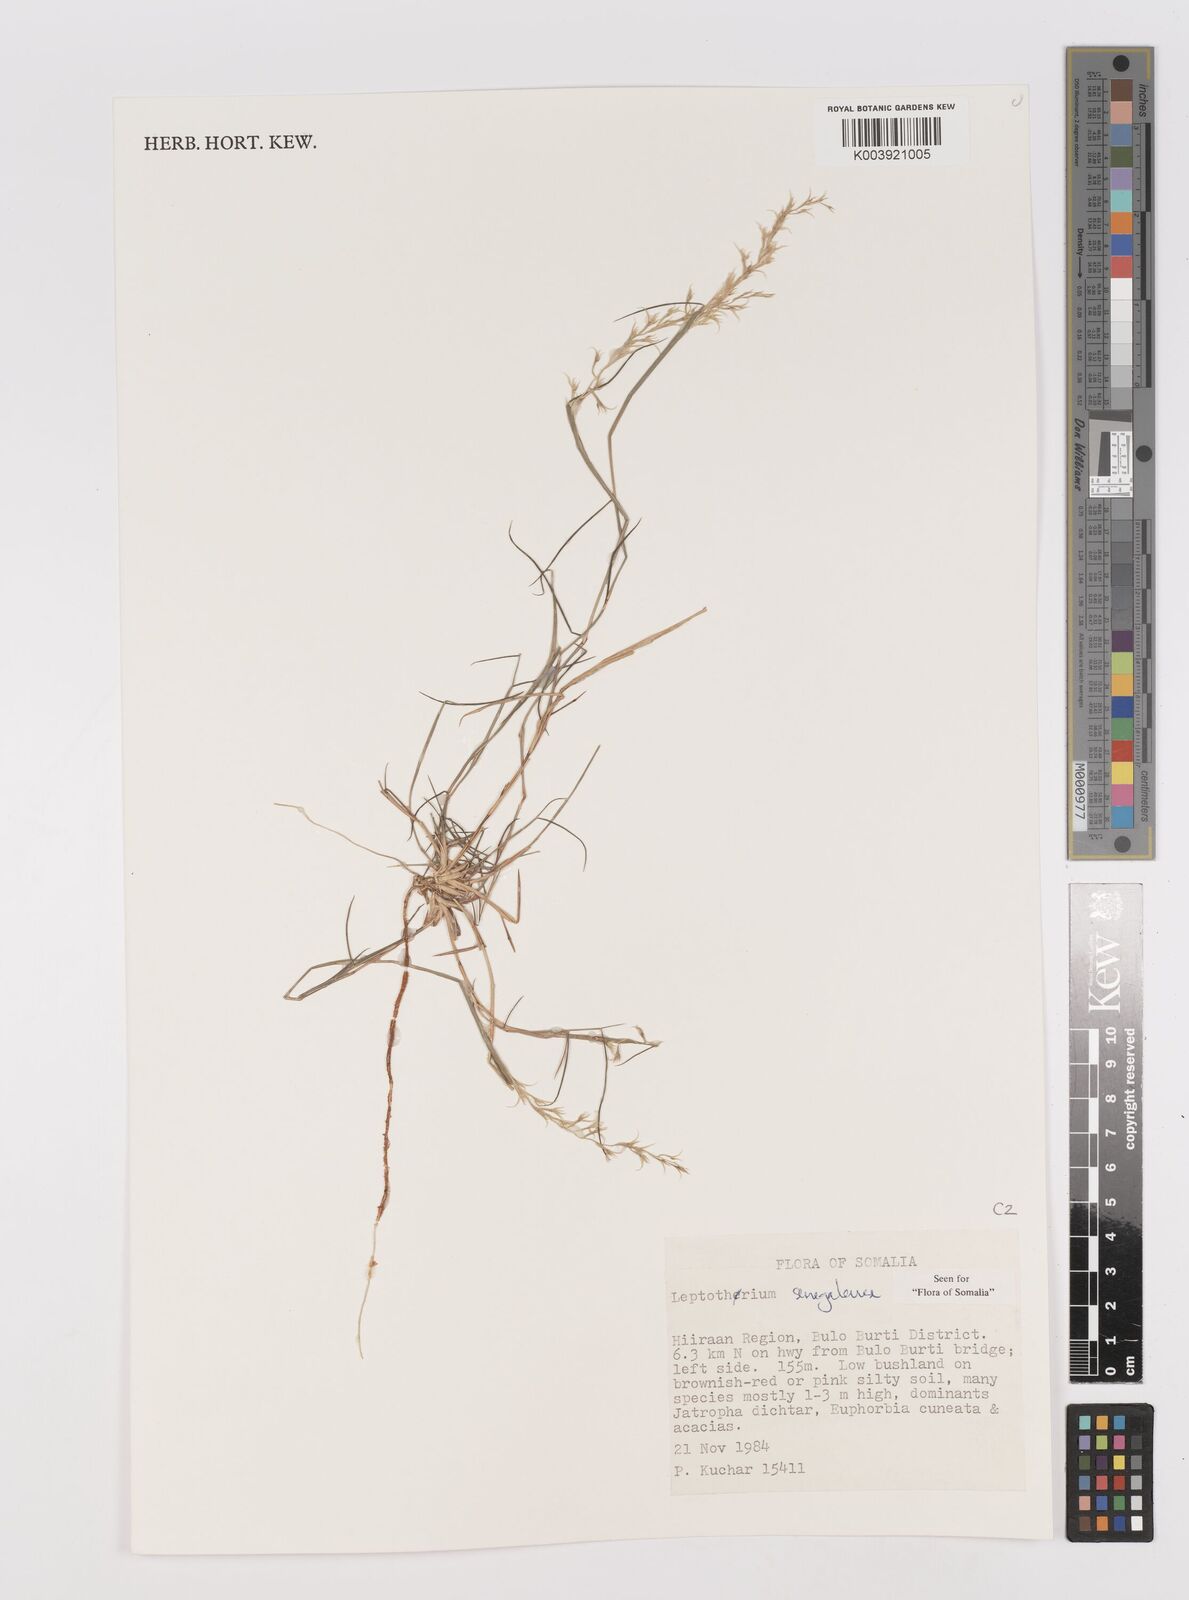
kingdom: Plantae
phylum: Tracheophyta
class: Liliopsida
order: Poales
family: Poaceae
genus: Leptothrium
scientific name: Leptothrium senegalense
